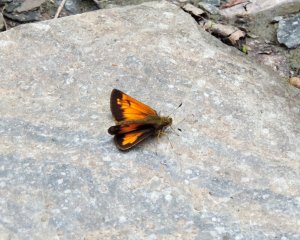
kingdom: Animalia
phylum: Arthropoda
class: Insecta
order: Lepidoptera
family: Hesperiidae
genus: Lon
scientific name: Lon hobomok
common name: Hobomok Skipper
